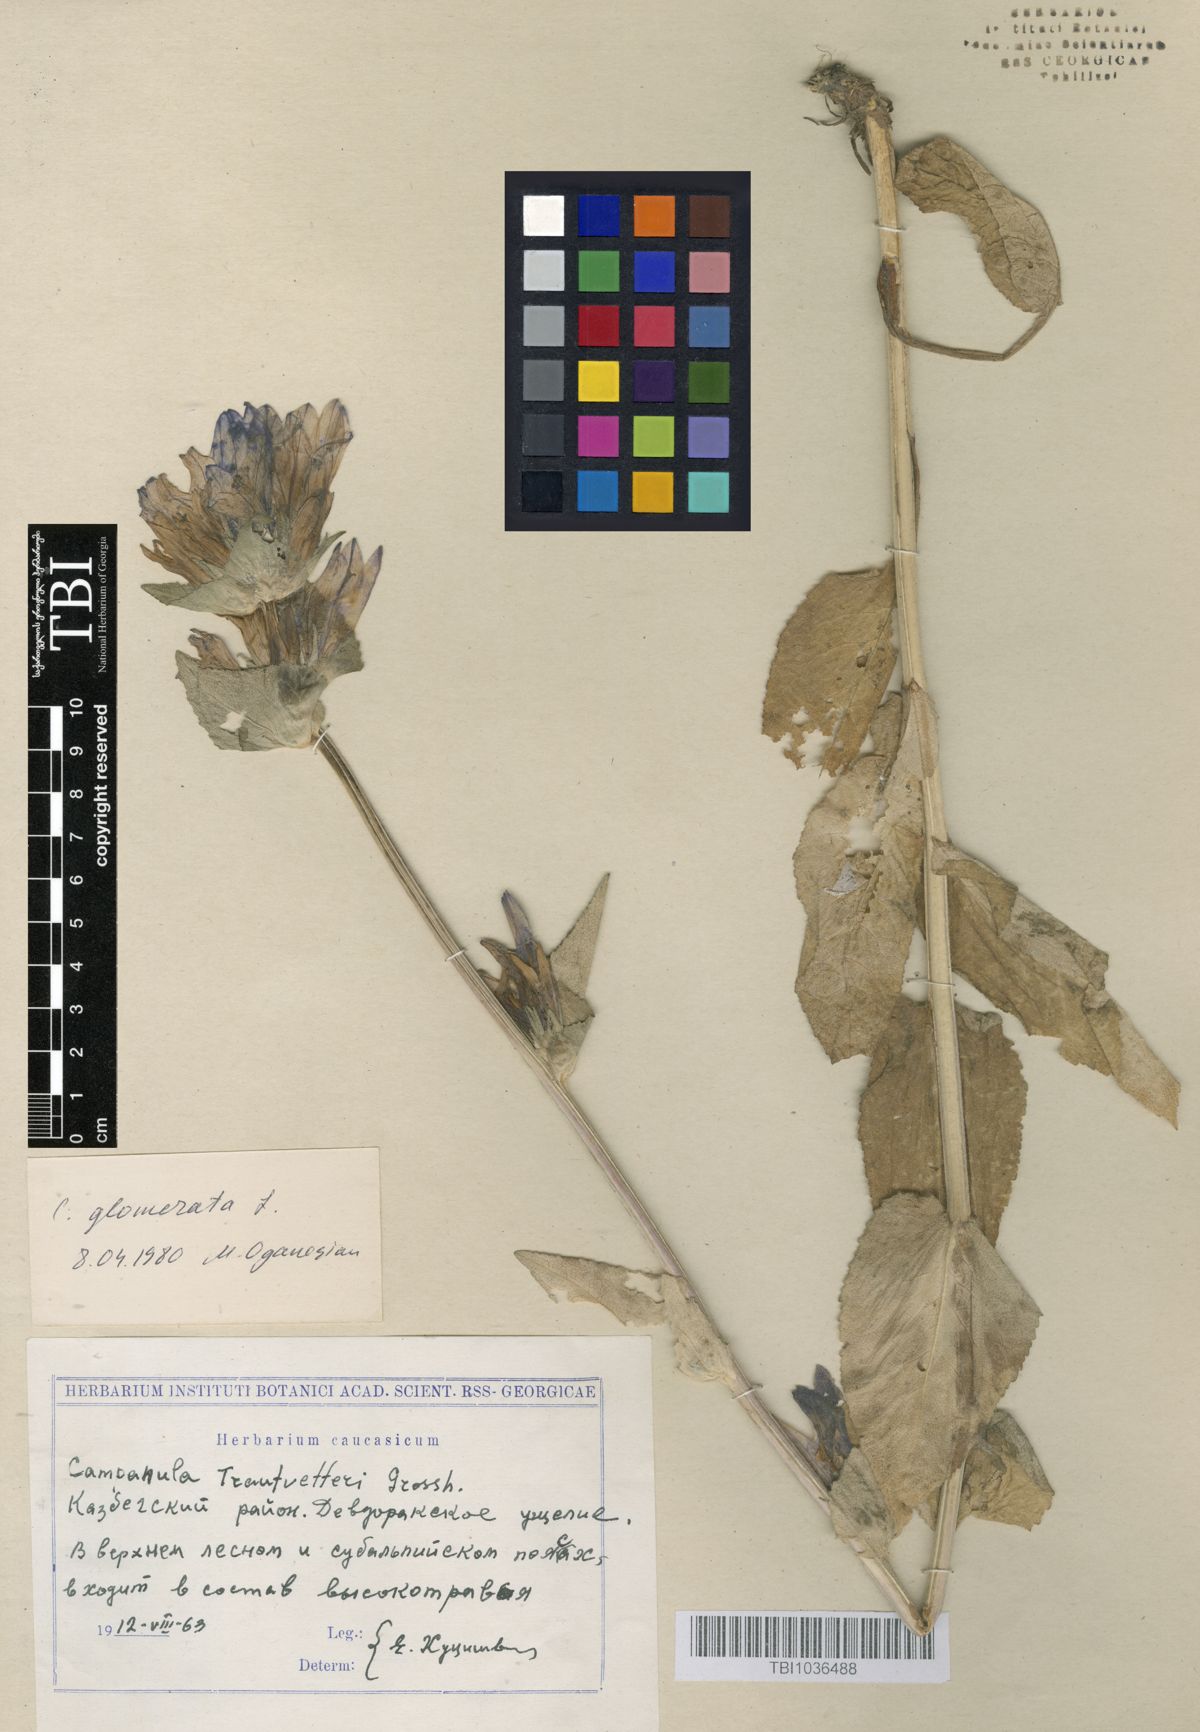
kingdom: Plantae
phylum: Tracheophyta
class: Magnoliopsida
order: Asterales
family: Campanulaceae
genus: Campanula
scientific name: Campanula glomerata
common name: Clustered bellflower
